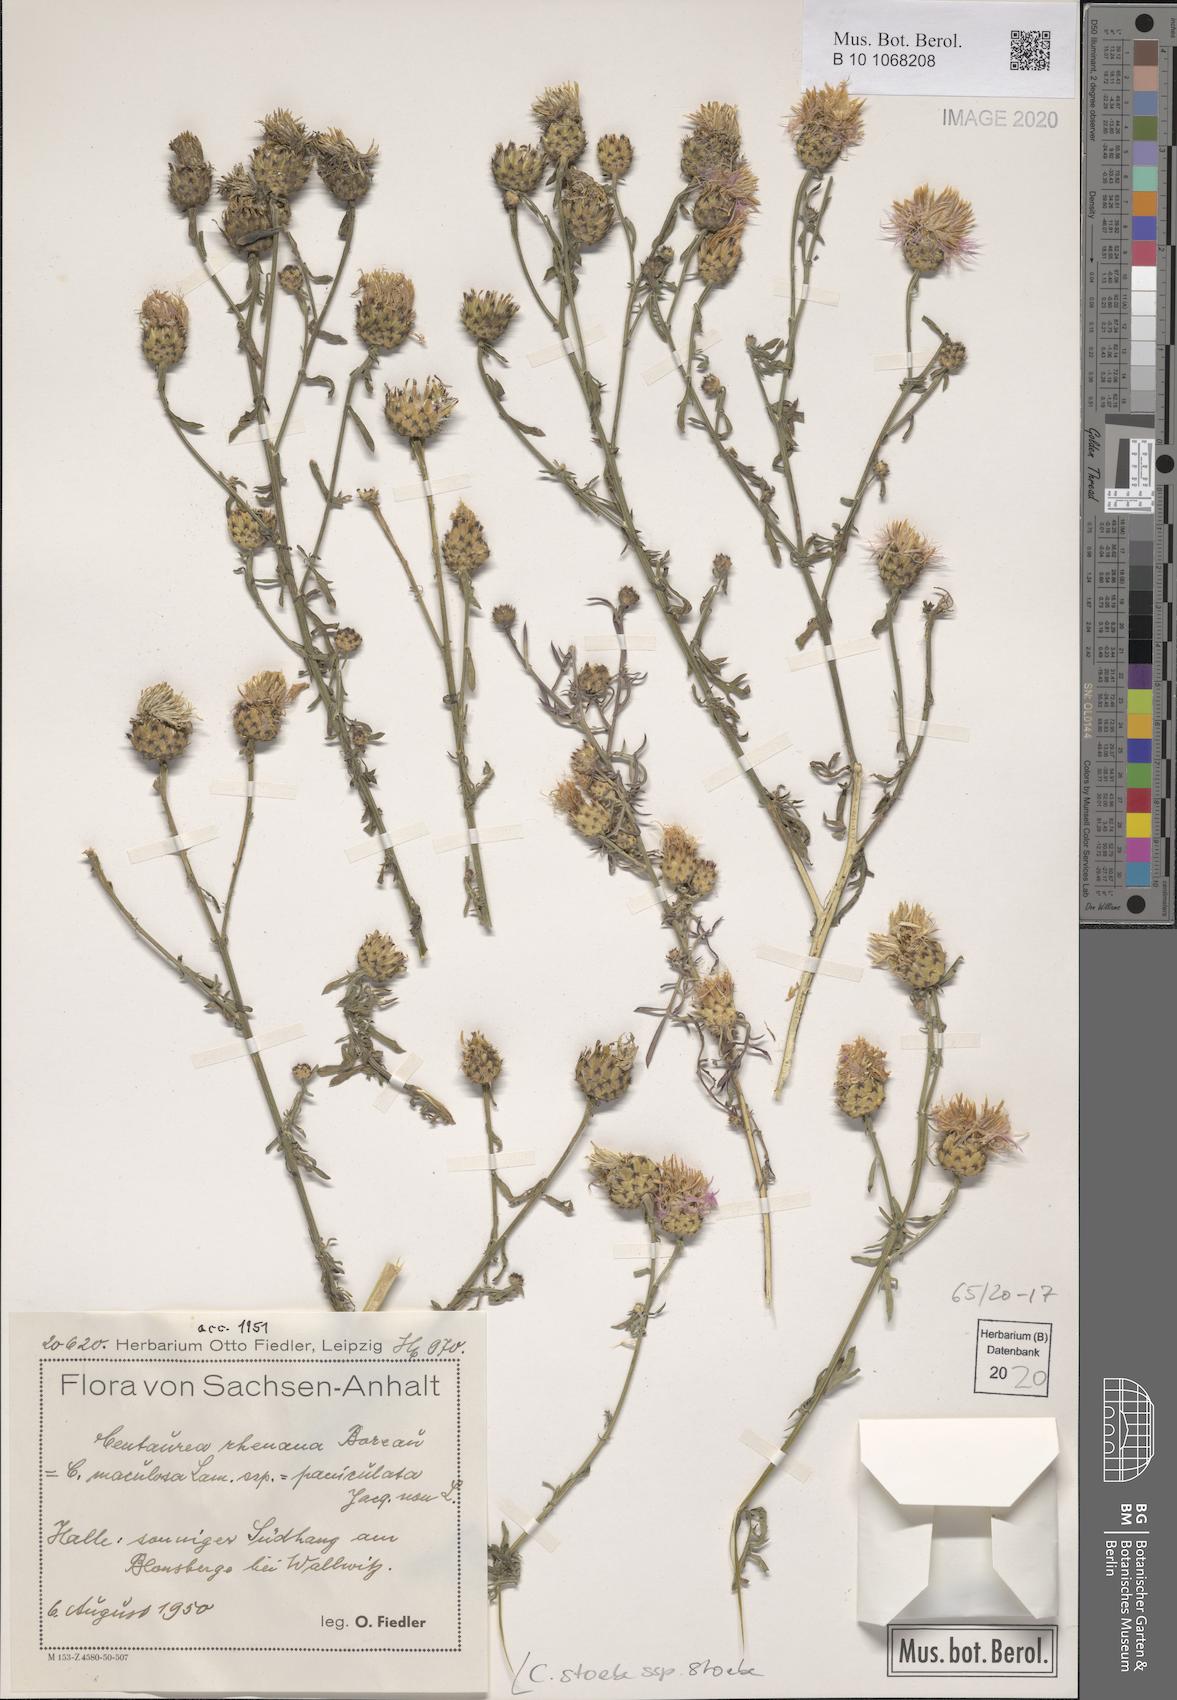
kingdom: Plantae
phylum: Tracheophyta
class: Magnoliopsida
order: Asterales
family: Asteraceae
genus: Centaurea
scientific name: Centaurea stoebe
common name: Spotted knapweed
